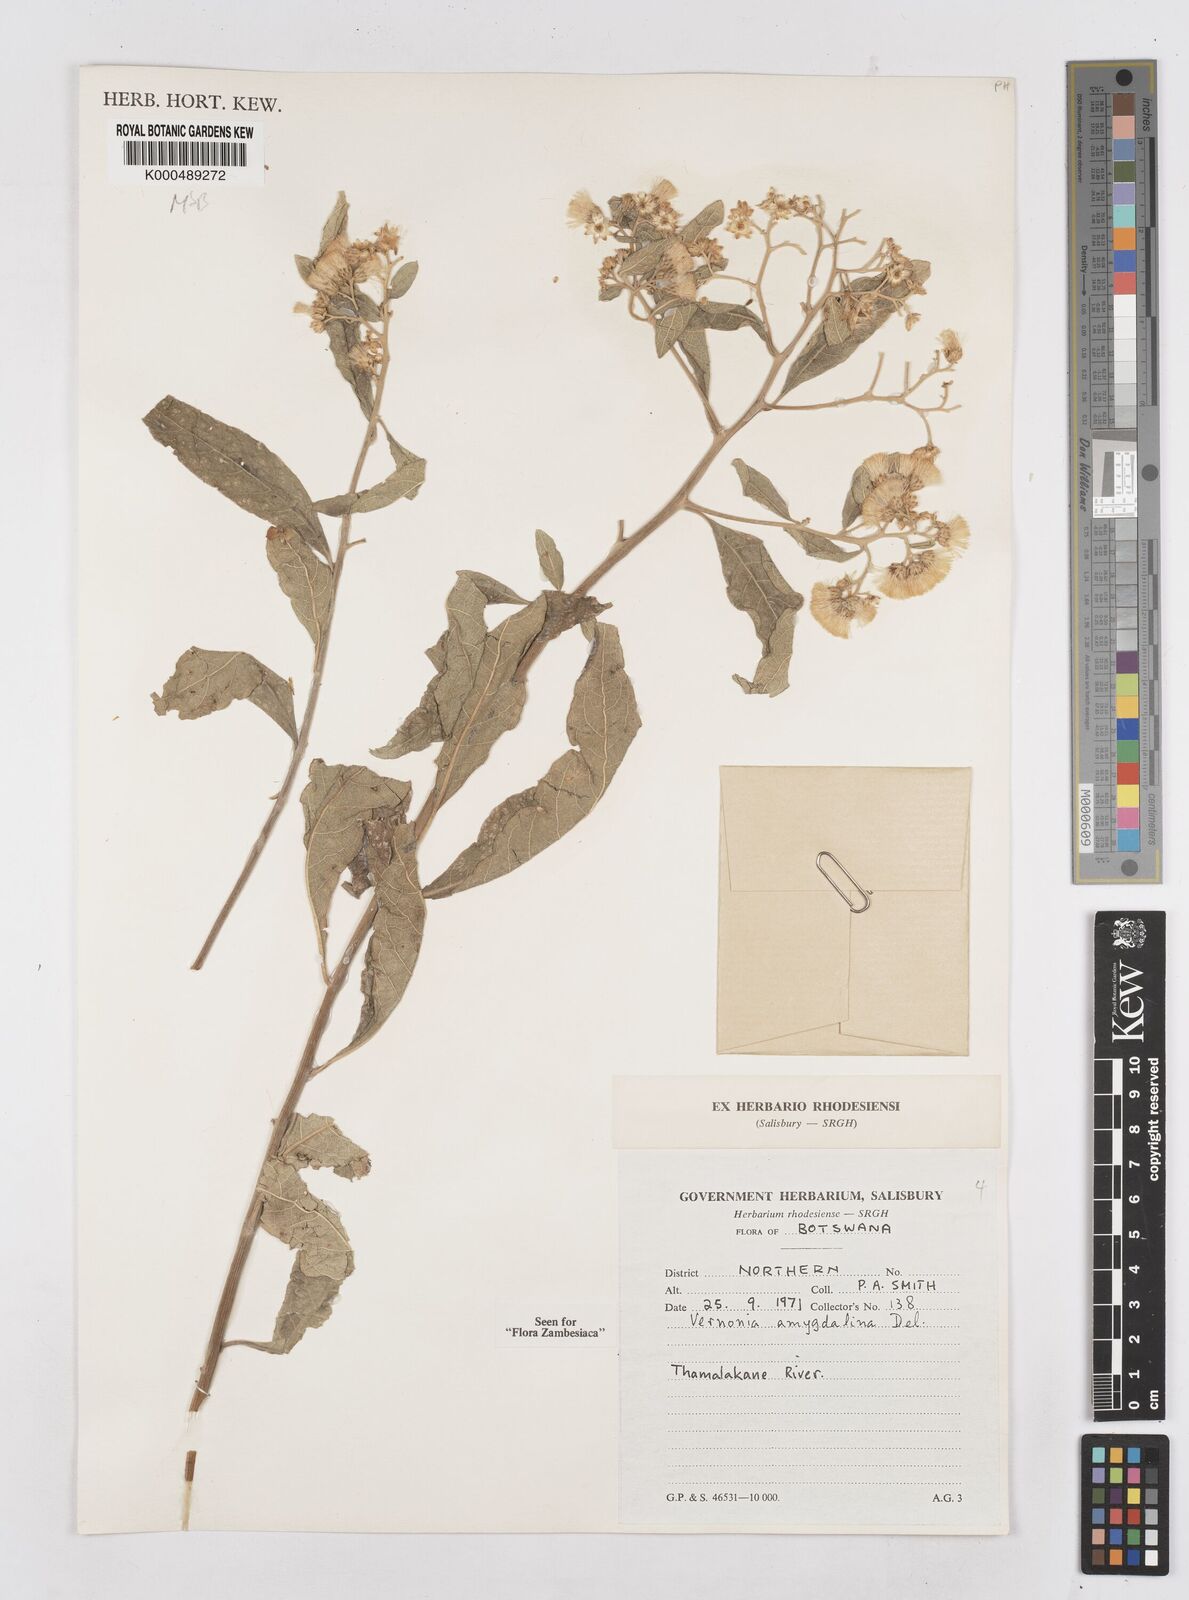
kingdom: Plantae
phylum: Tracheophyta
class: Magnoliopsida
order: Asterales
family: Asteraceae
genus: Gymnanthemum
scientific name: Gymnanthemum amygdalinum
